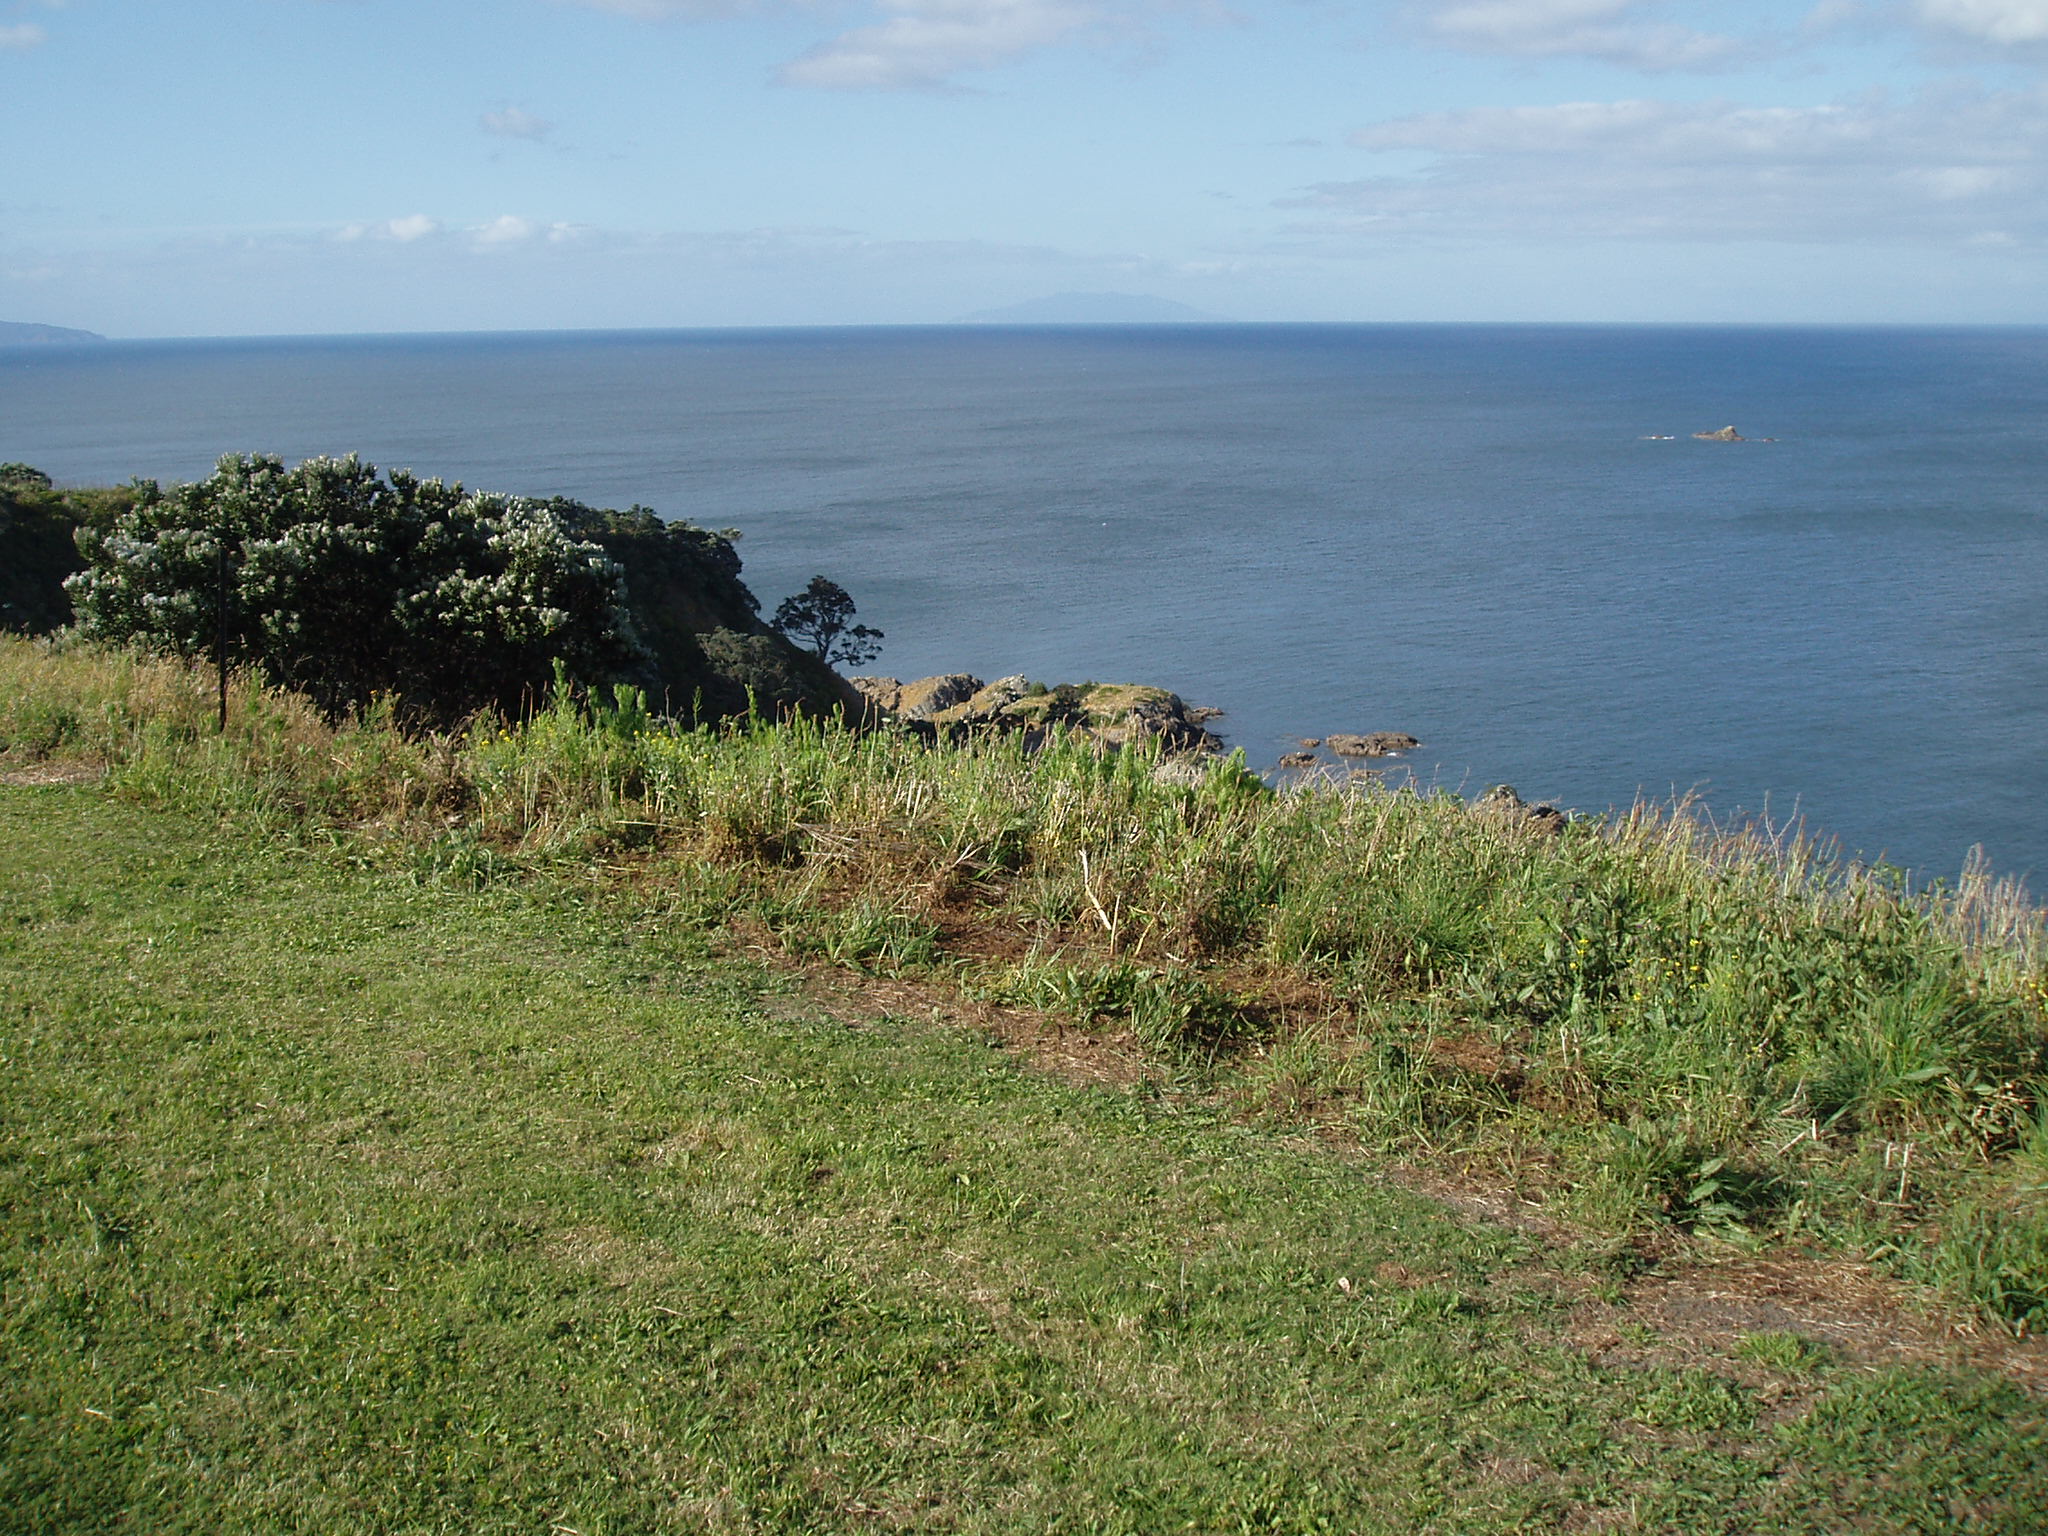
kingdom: Plantae
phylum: Tracheophyta
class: Magnoliopsida
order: Brassicales
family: Brassicaceae
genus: Brassica
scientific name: Brassica rapa
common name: Field mustard
